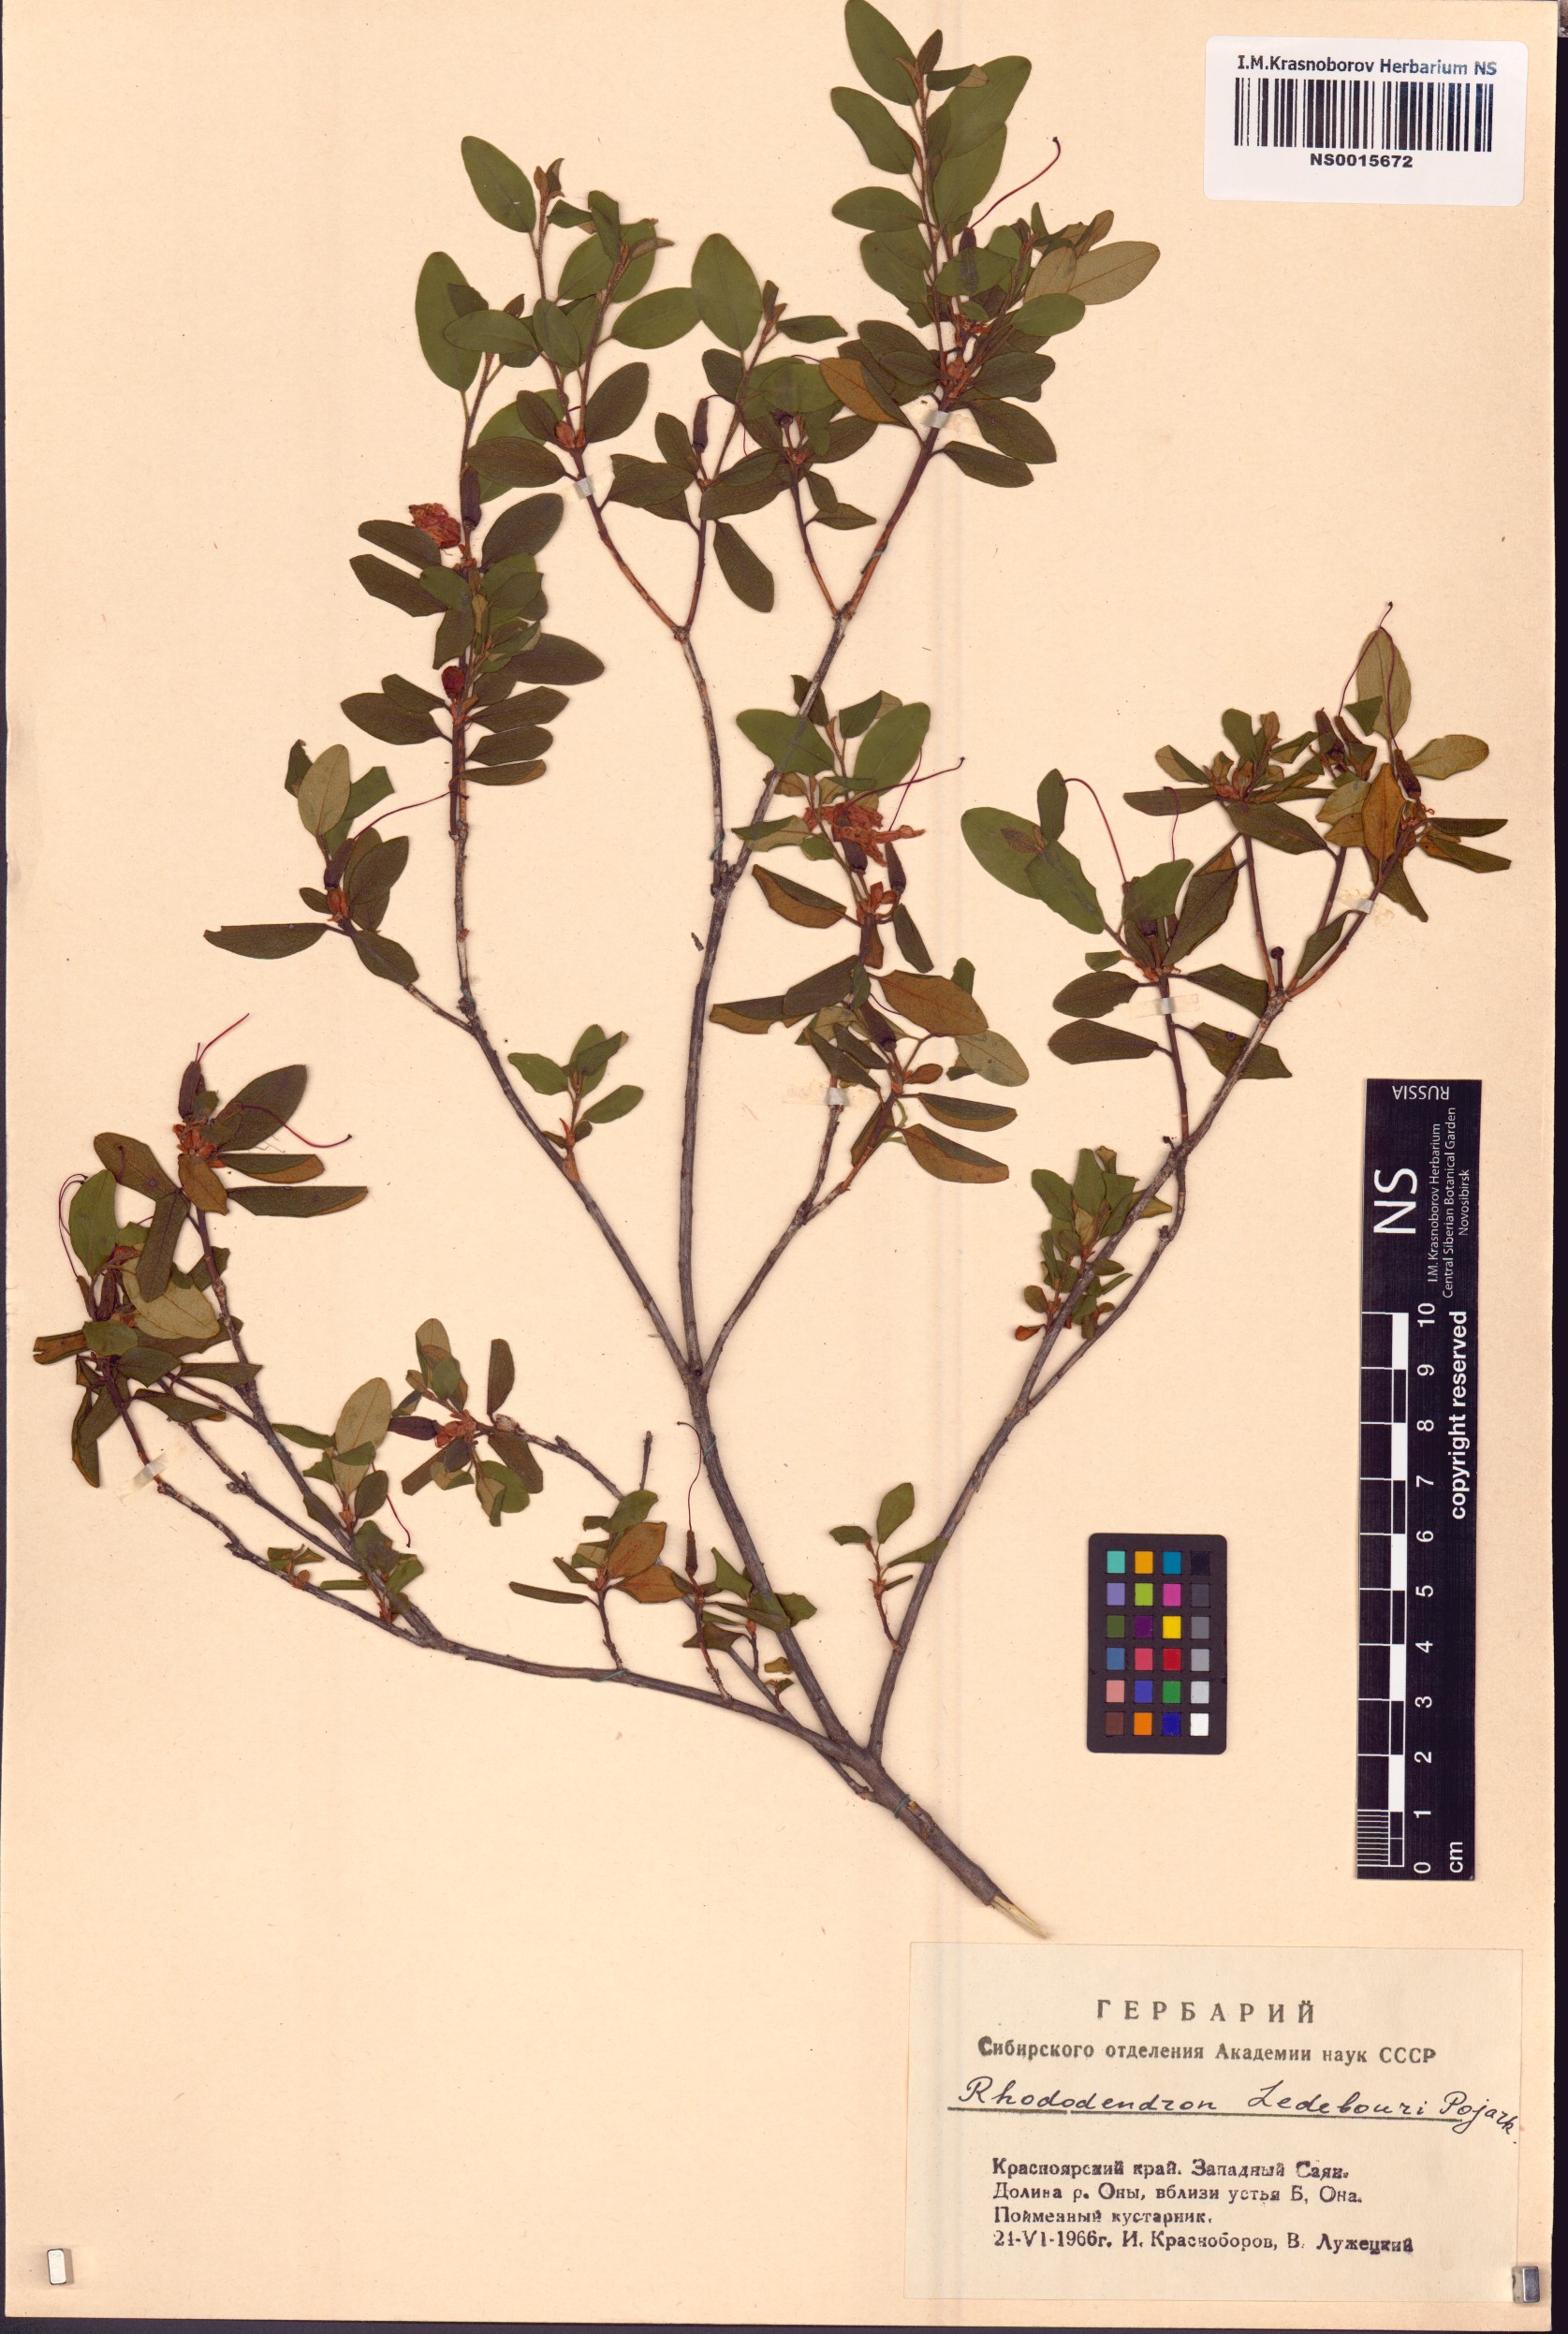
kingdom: Plantae
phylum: Tracheophyta
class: Magnoliopsida
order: Ericales
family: Ericaceae
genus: Rhododendron
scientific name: Rhododendron dauricum
